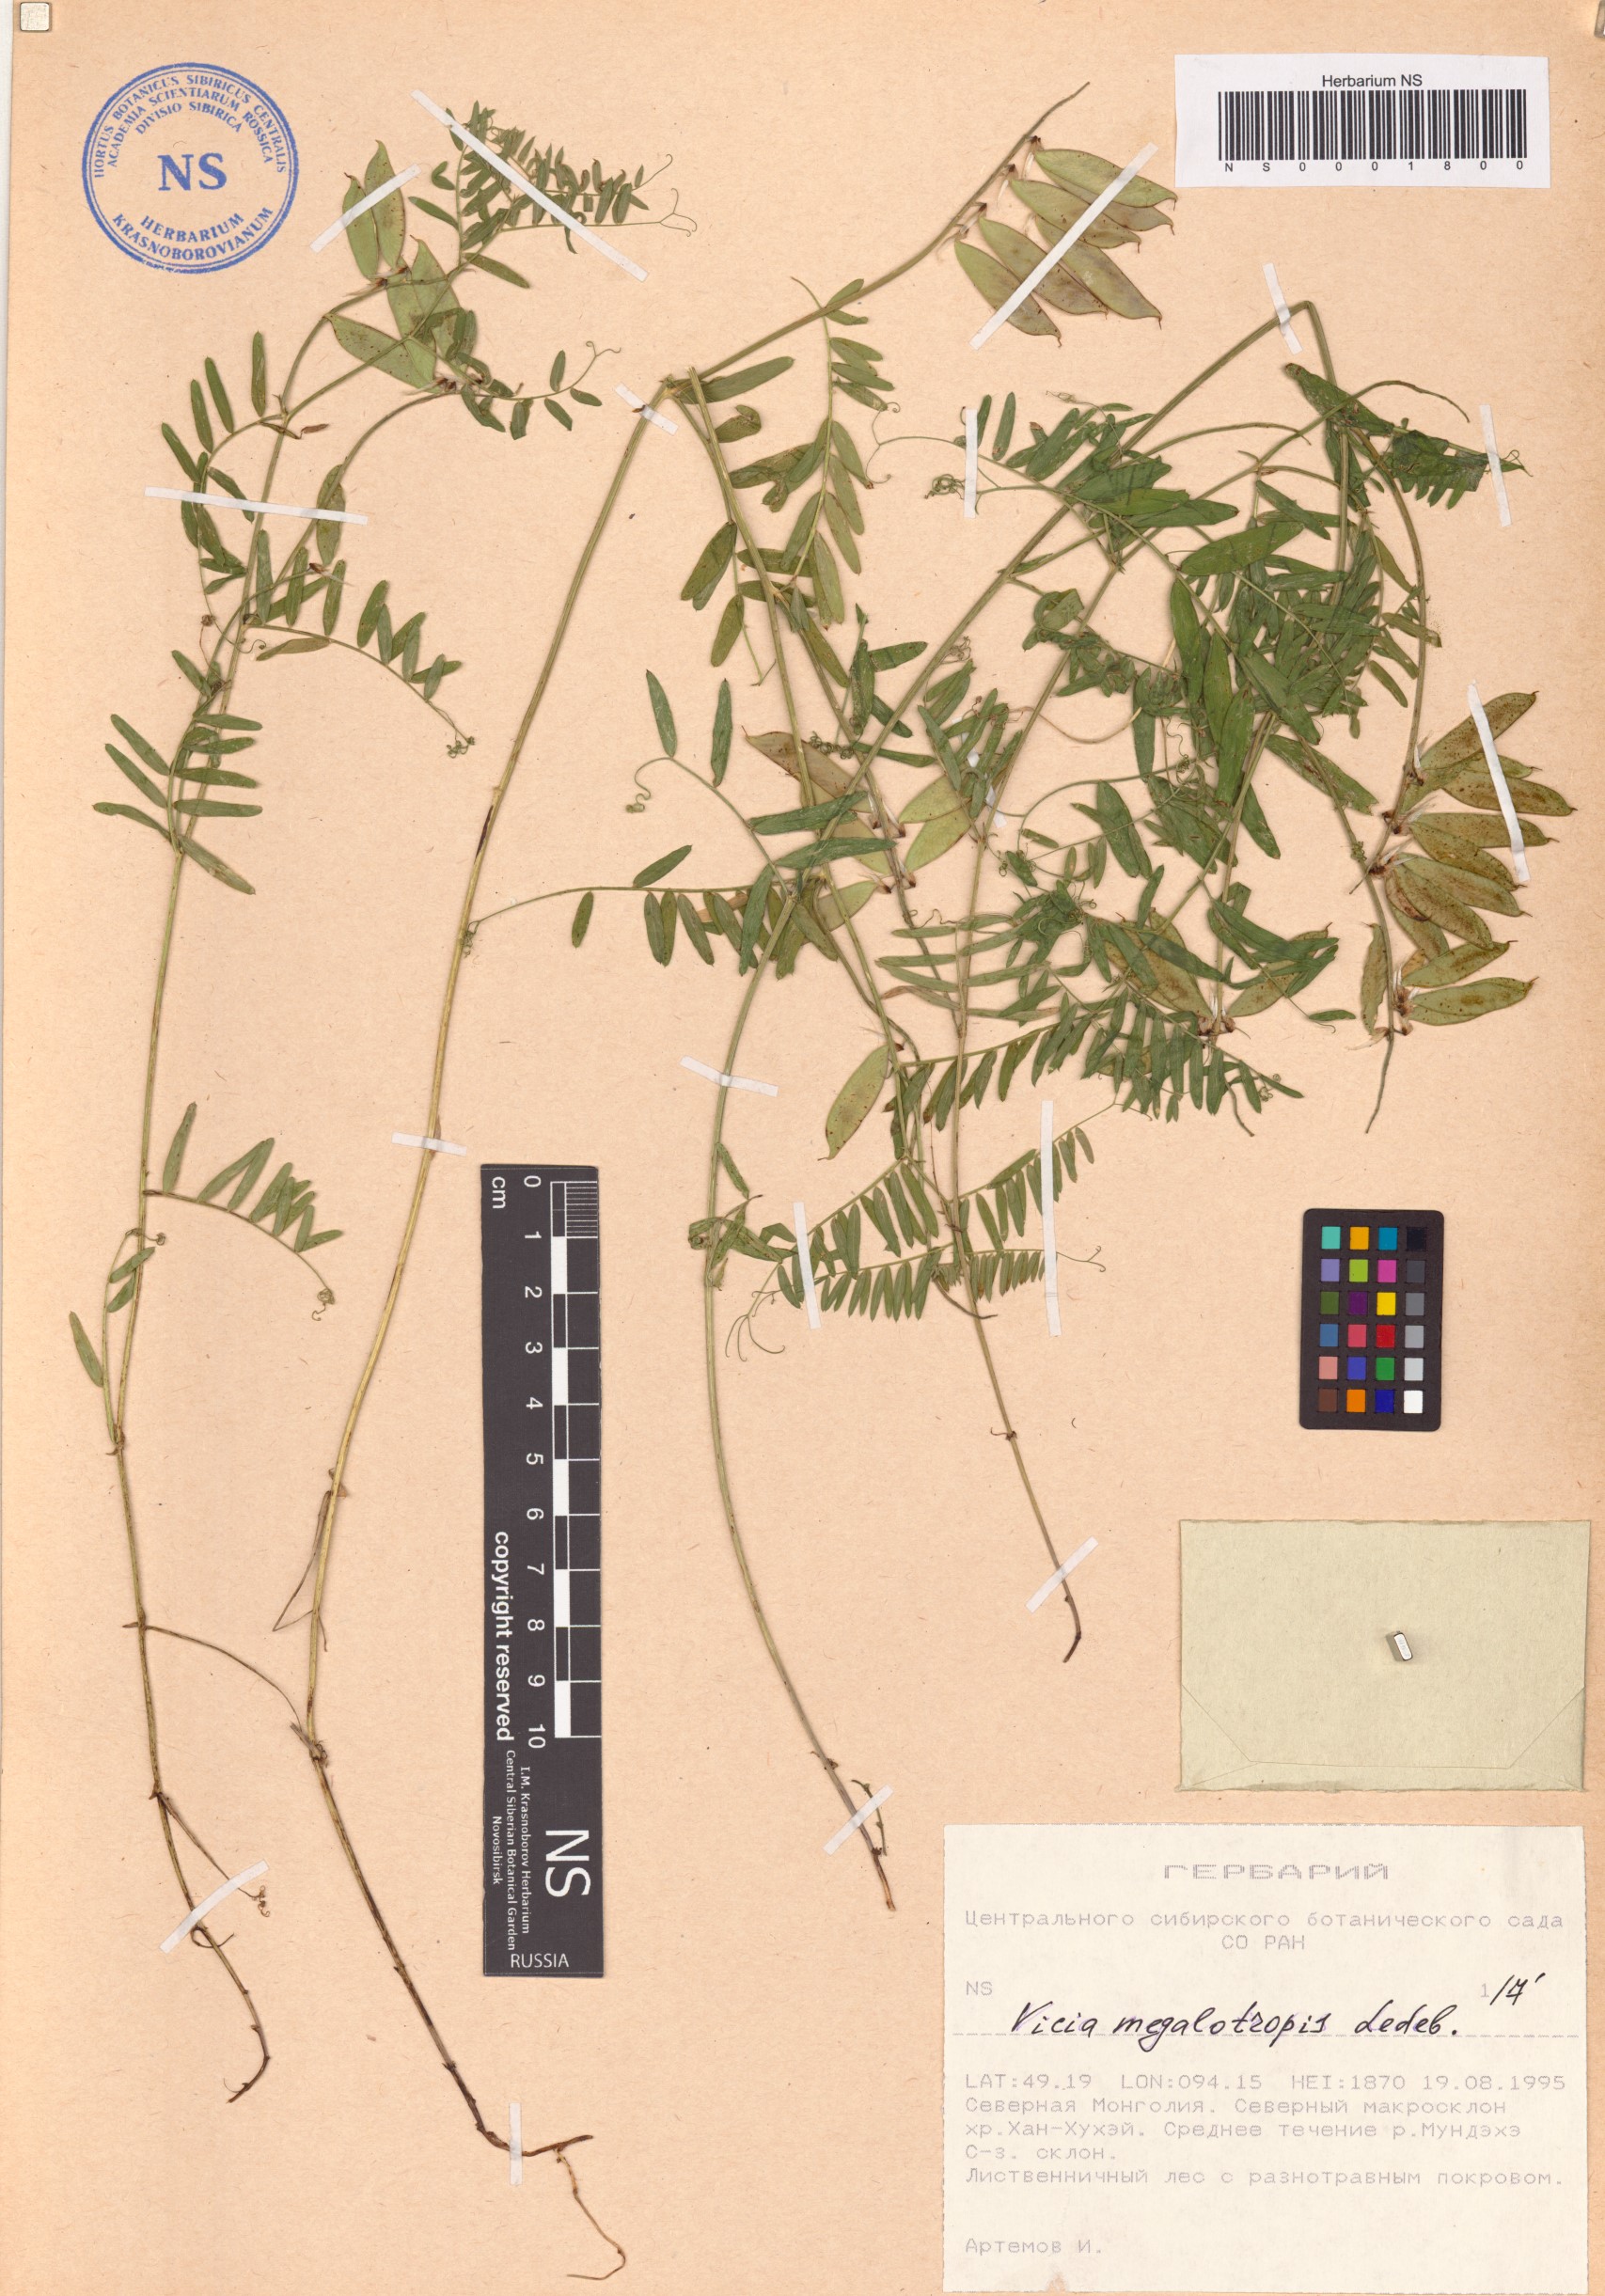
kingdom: Plantae
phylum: Tracheophyta
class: Magnoliopsida
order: Fabales
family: Fabaceae
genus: Vicia
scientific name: Vicia megalotropis
